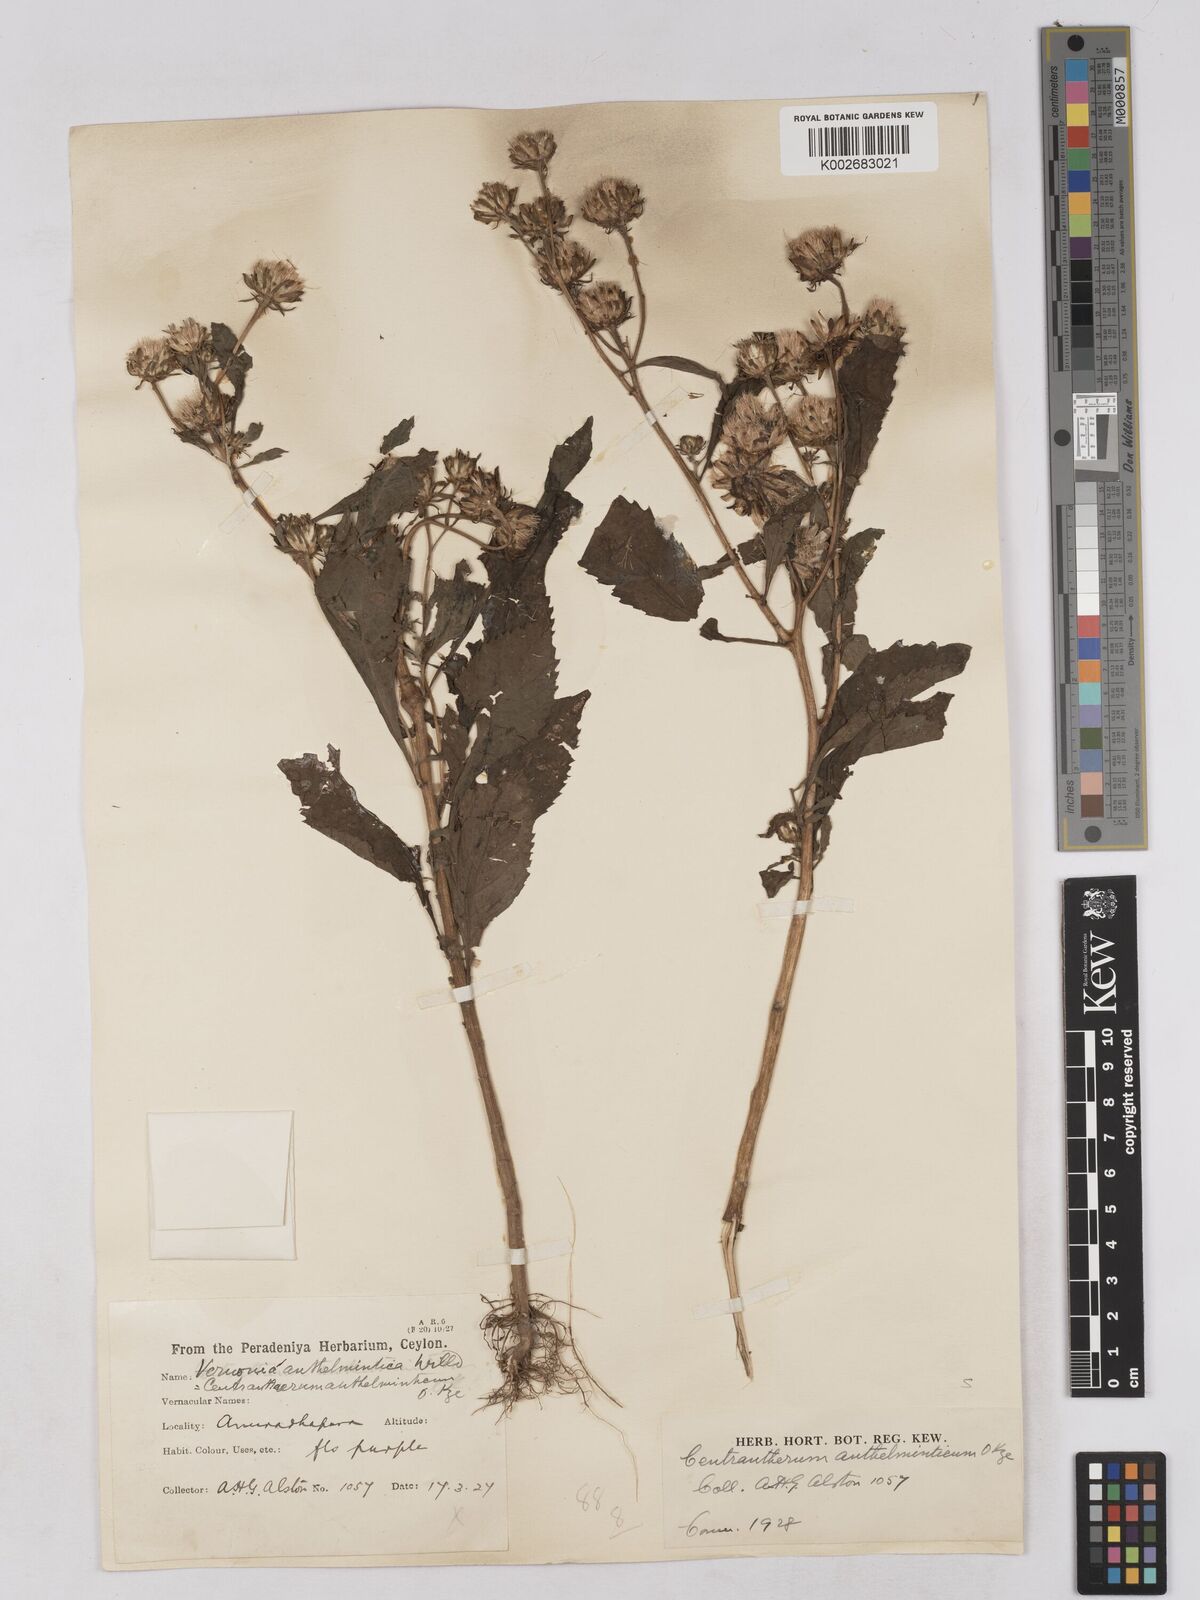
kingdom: Plantae
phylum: Tracheophyta
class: Magnoliopsida
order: Asterales
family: Asteraceae
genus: Baccharoides
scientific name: Baccharoides anthelmintica
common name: Kinka-oil
